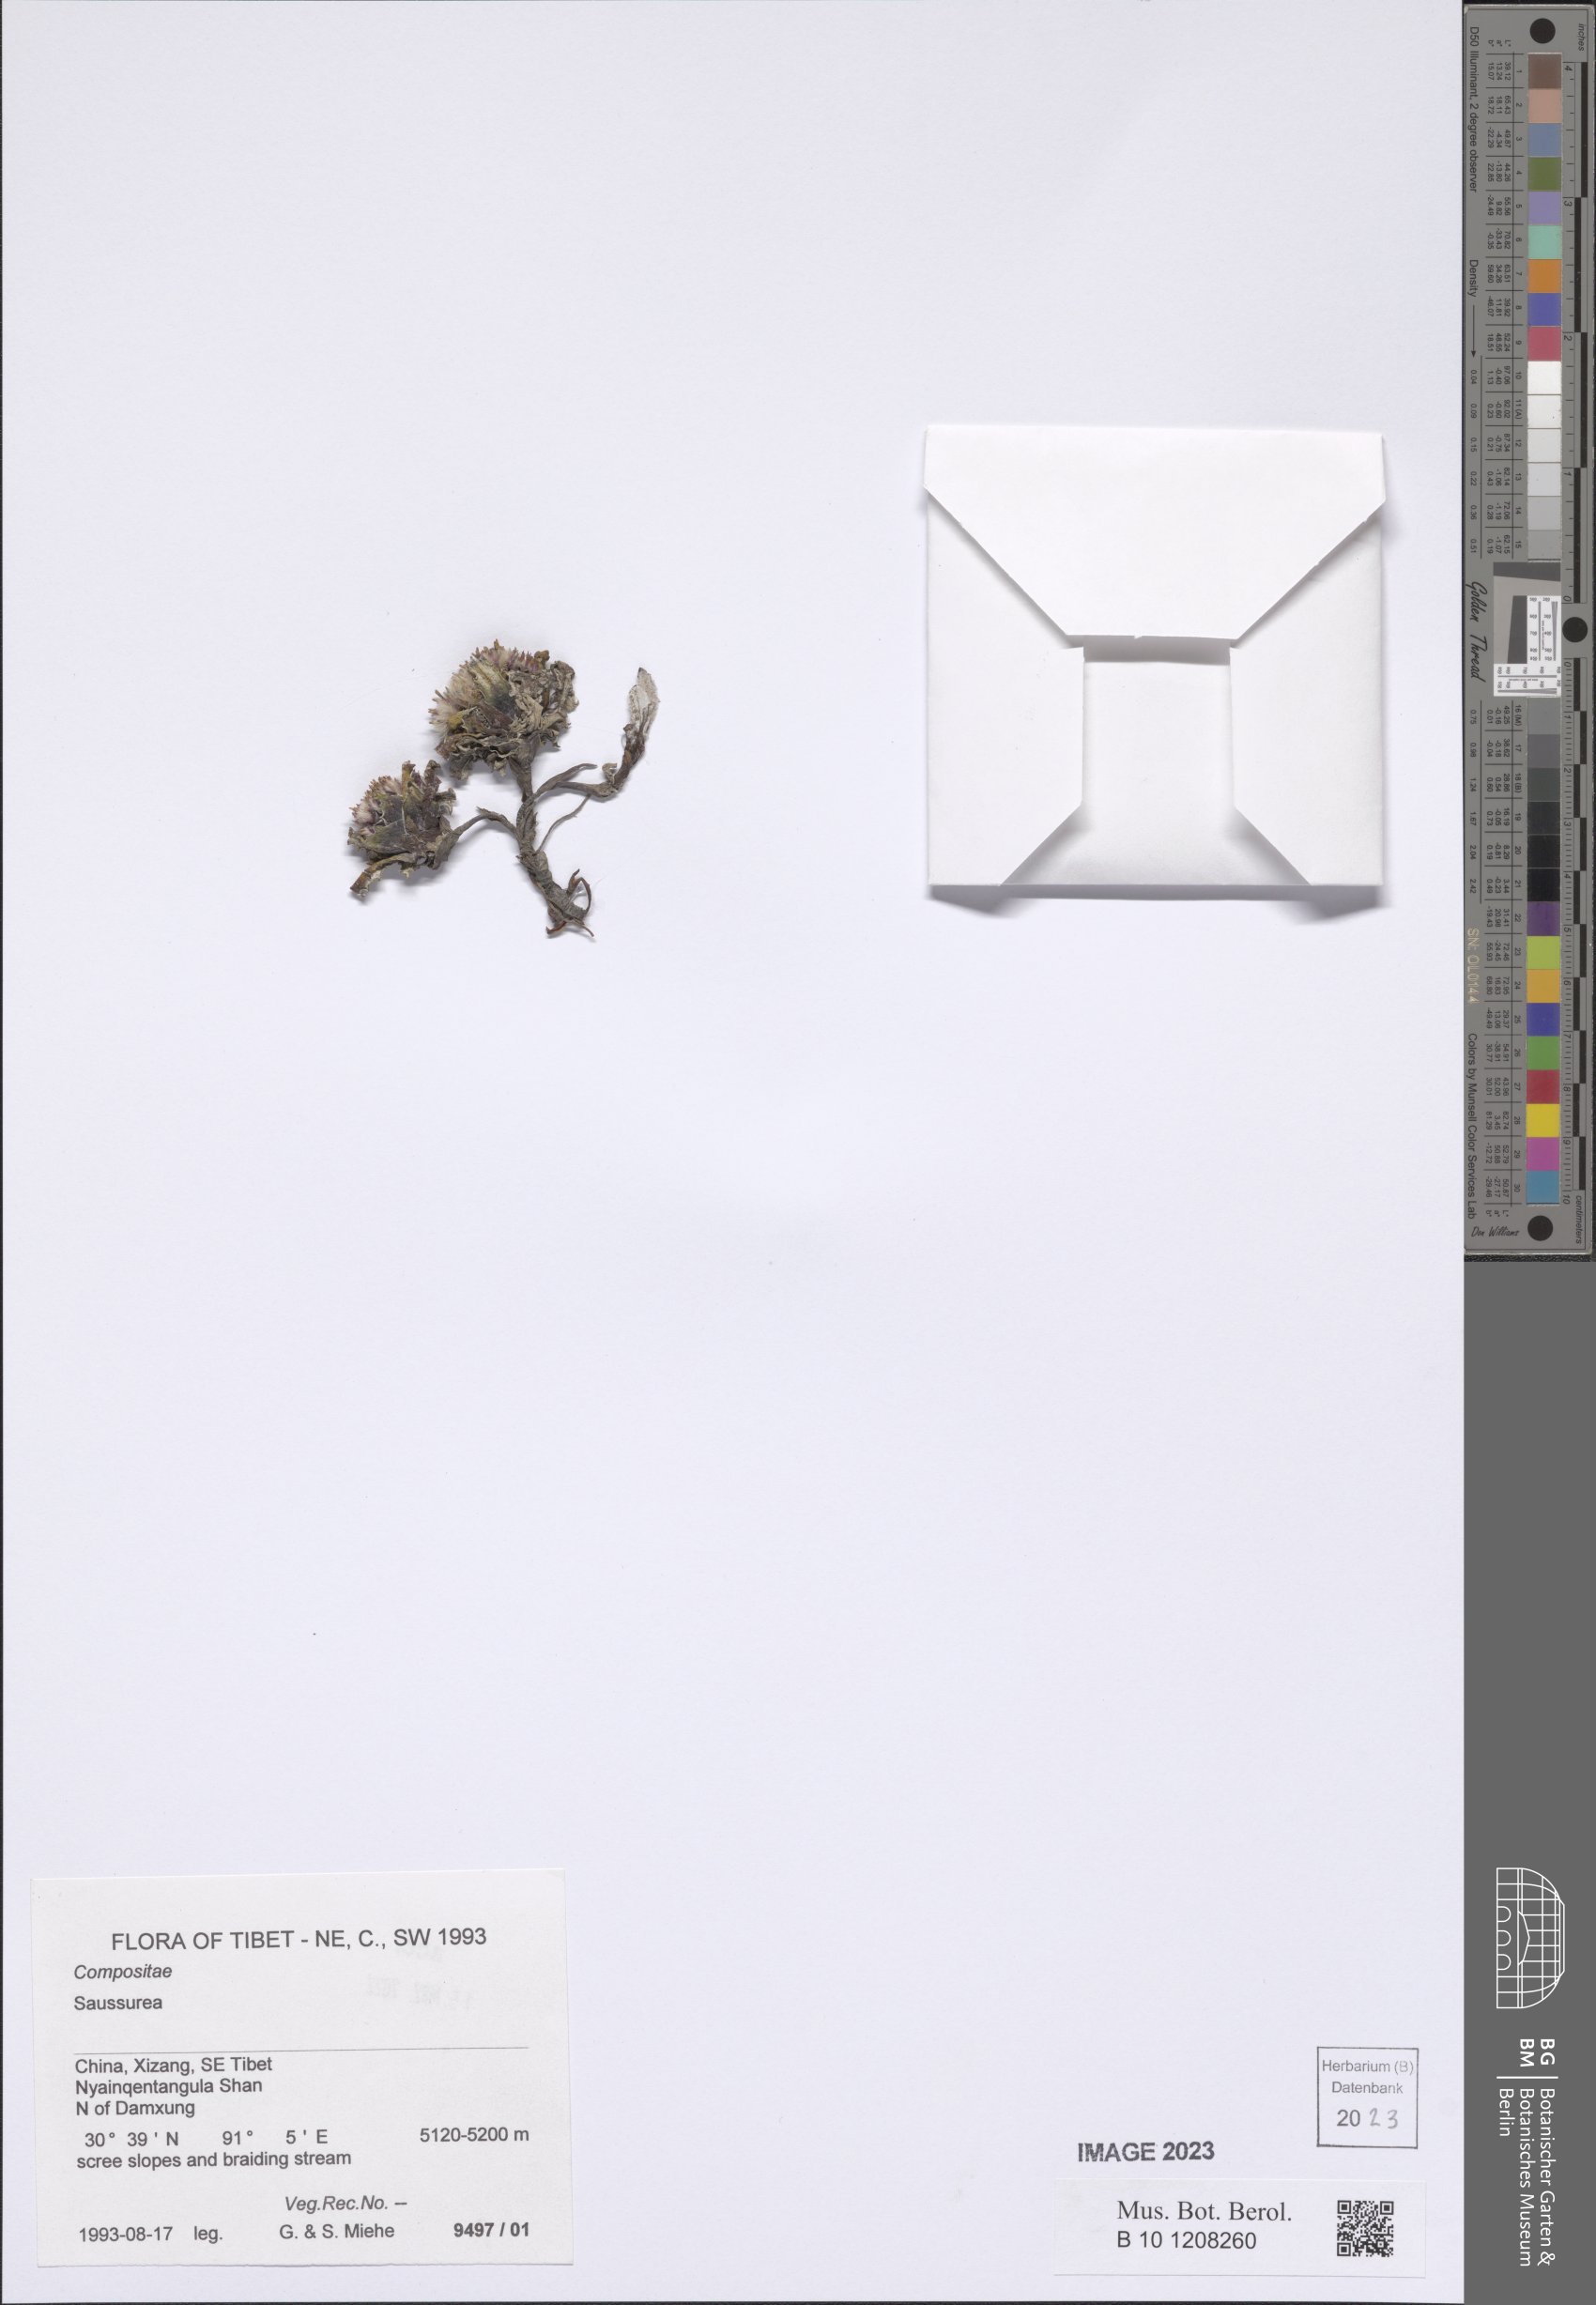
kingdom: Plantae
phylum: Tracheophyta
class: Magnoliopsida
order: Asterales
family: Asteraceae
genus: Saussurea
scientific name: Saussurea
